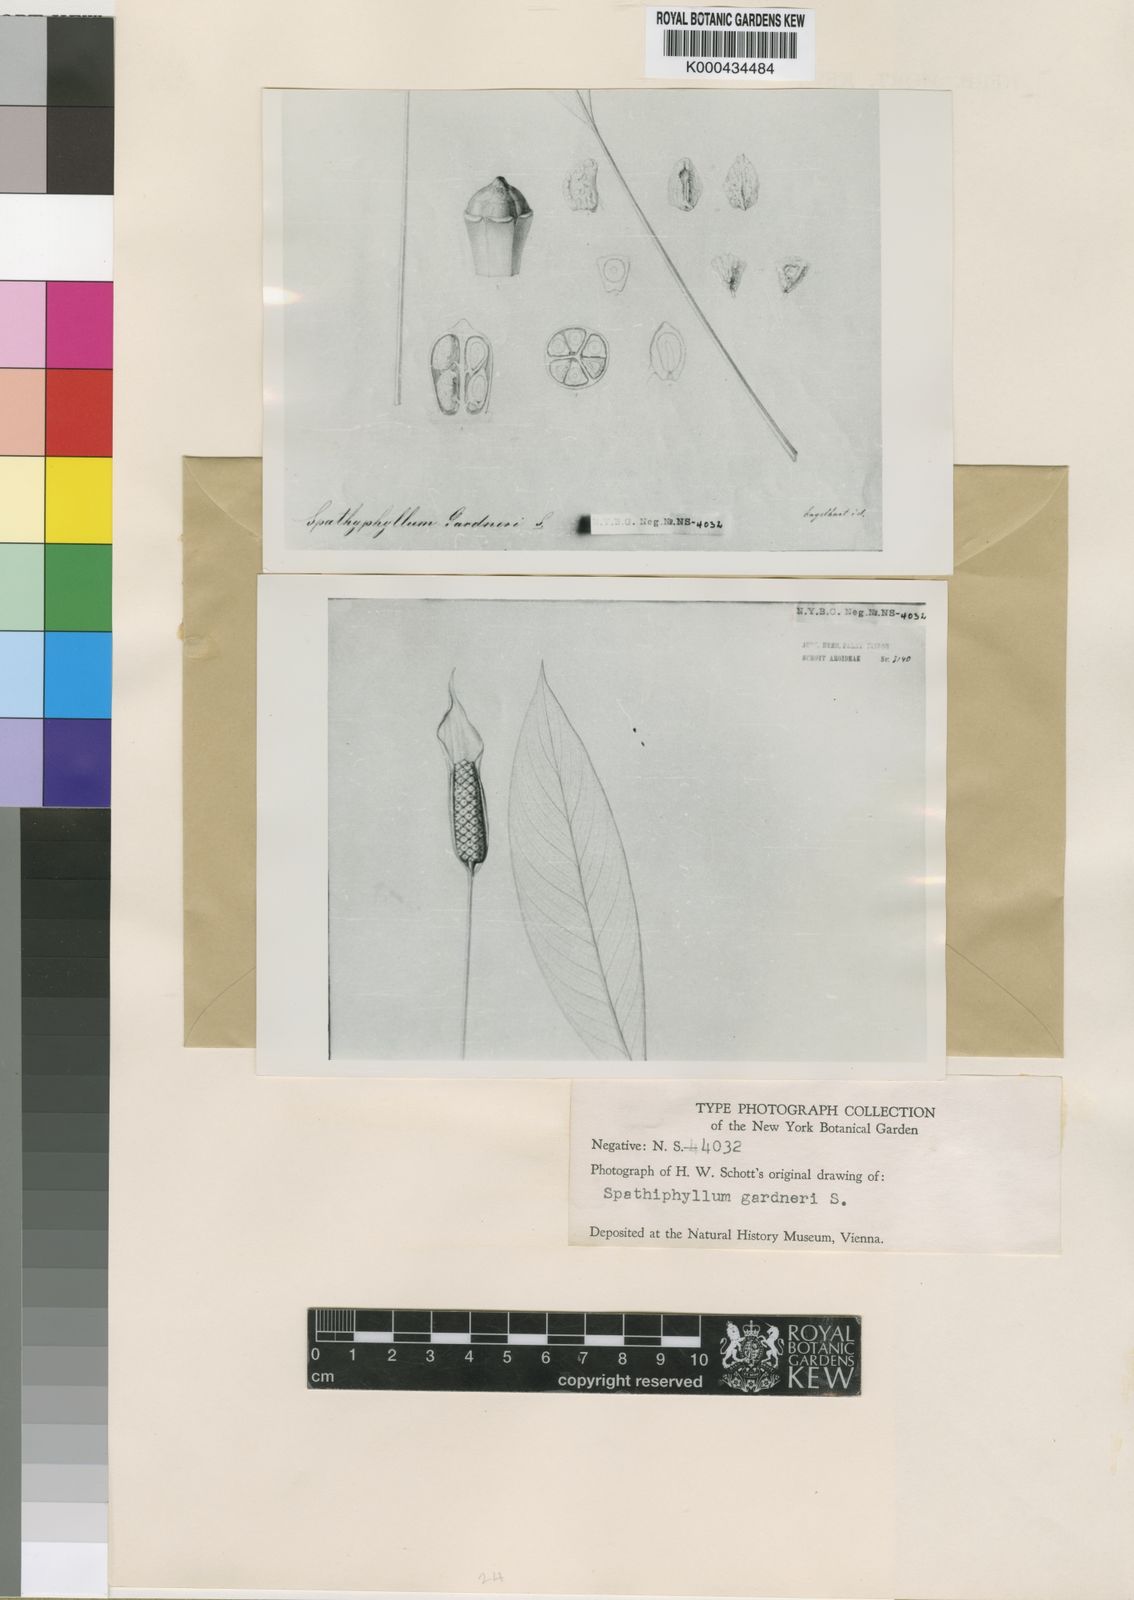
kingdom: Plantae
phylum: Tracheophyta
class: Liliopsida
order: Alismatales
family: Araceae
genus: Spathiphyllum
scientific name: Spathiphyllum gardneri
